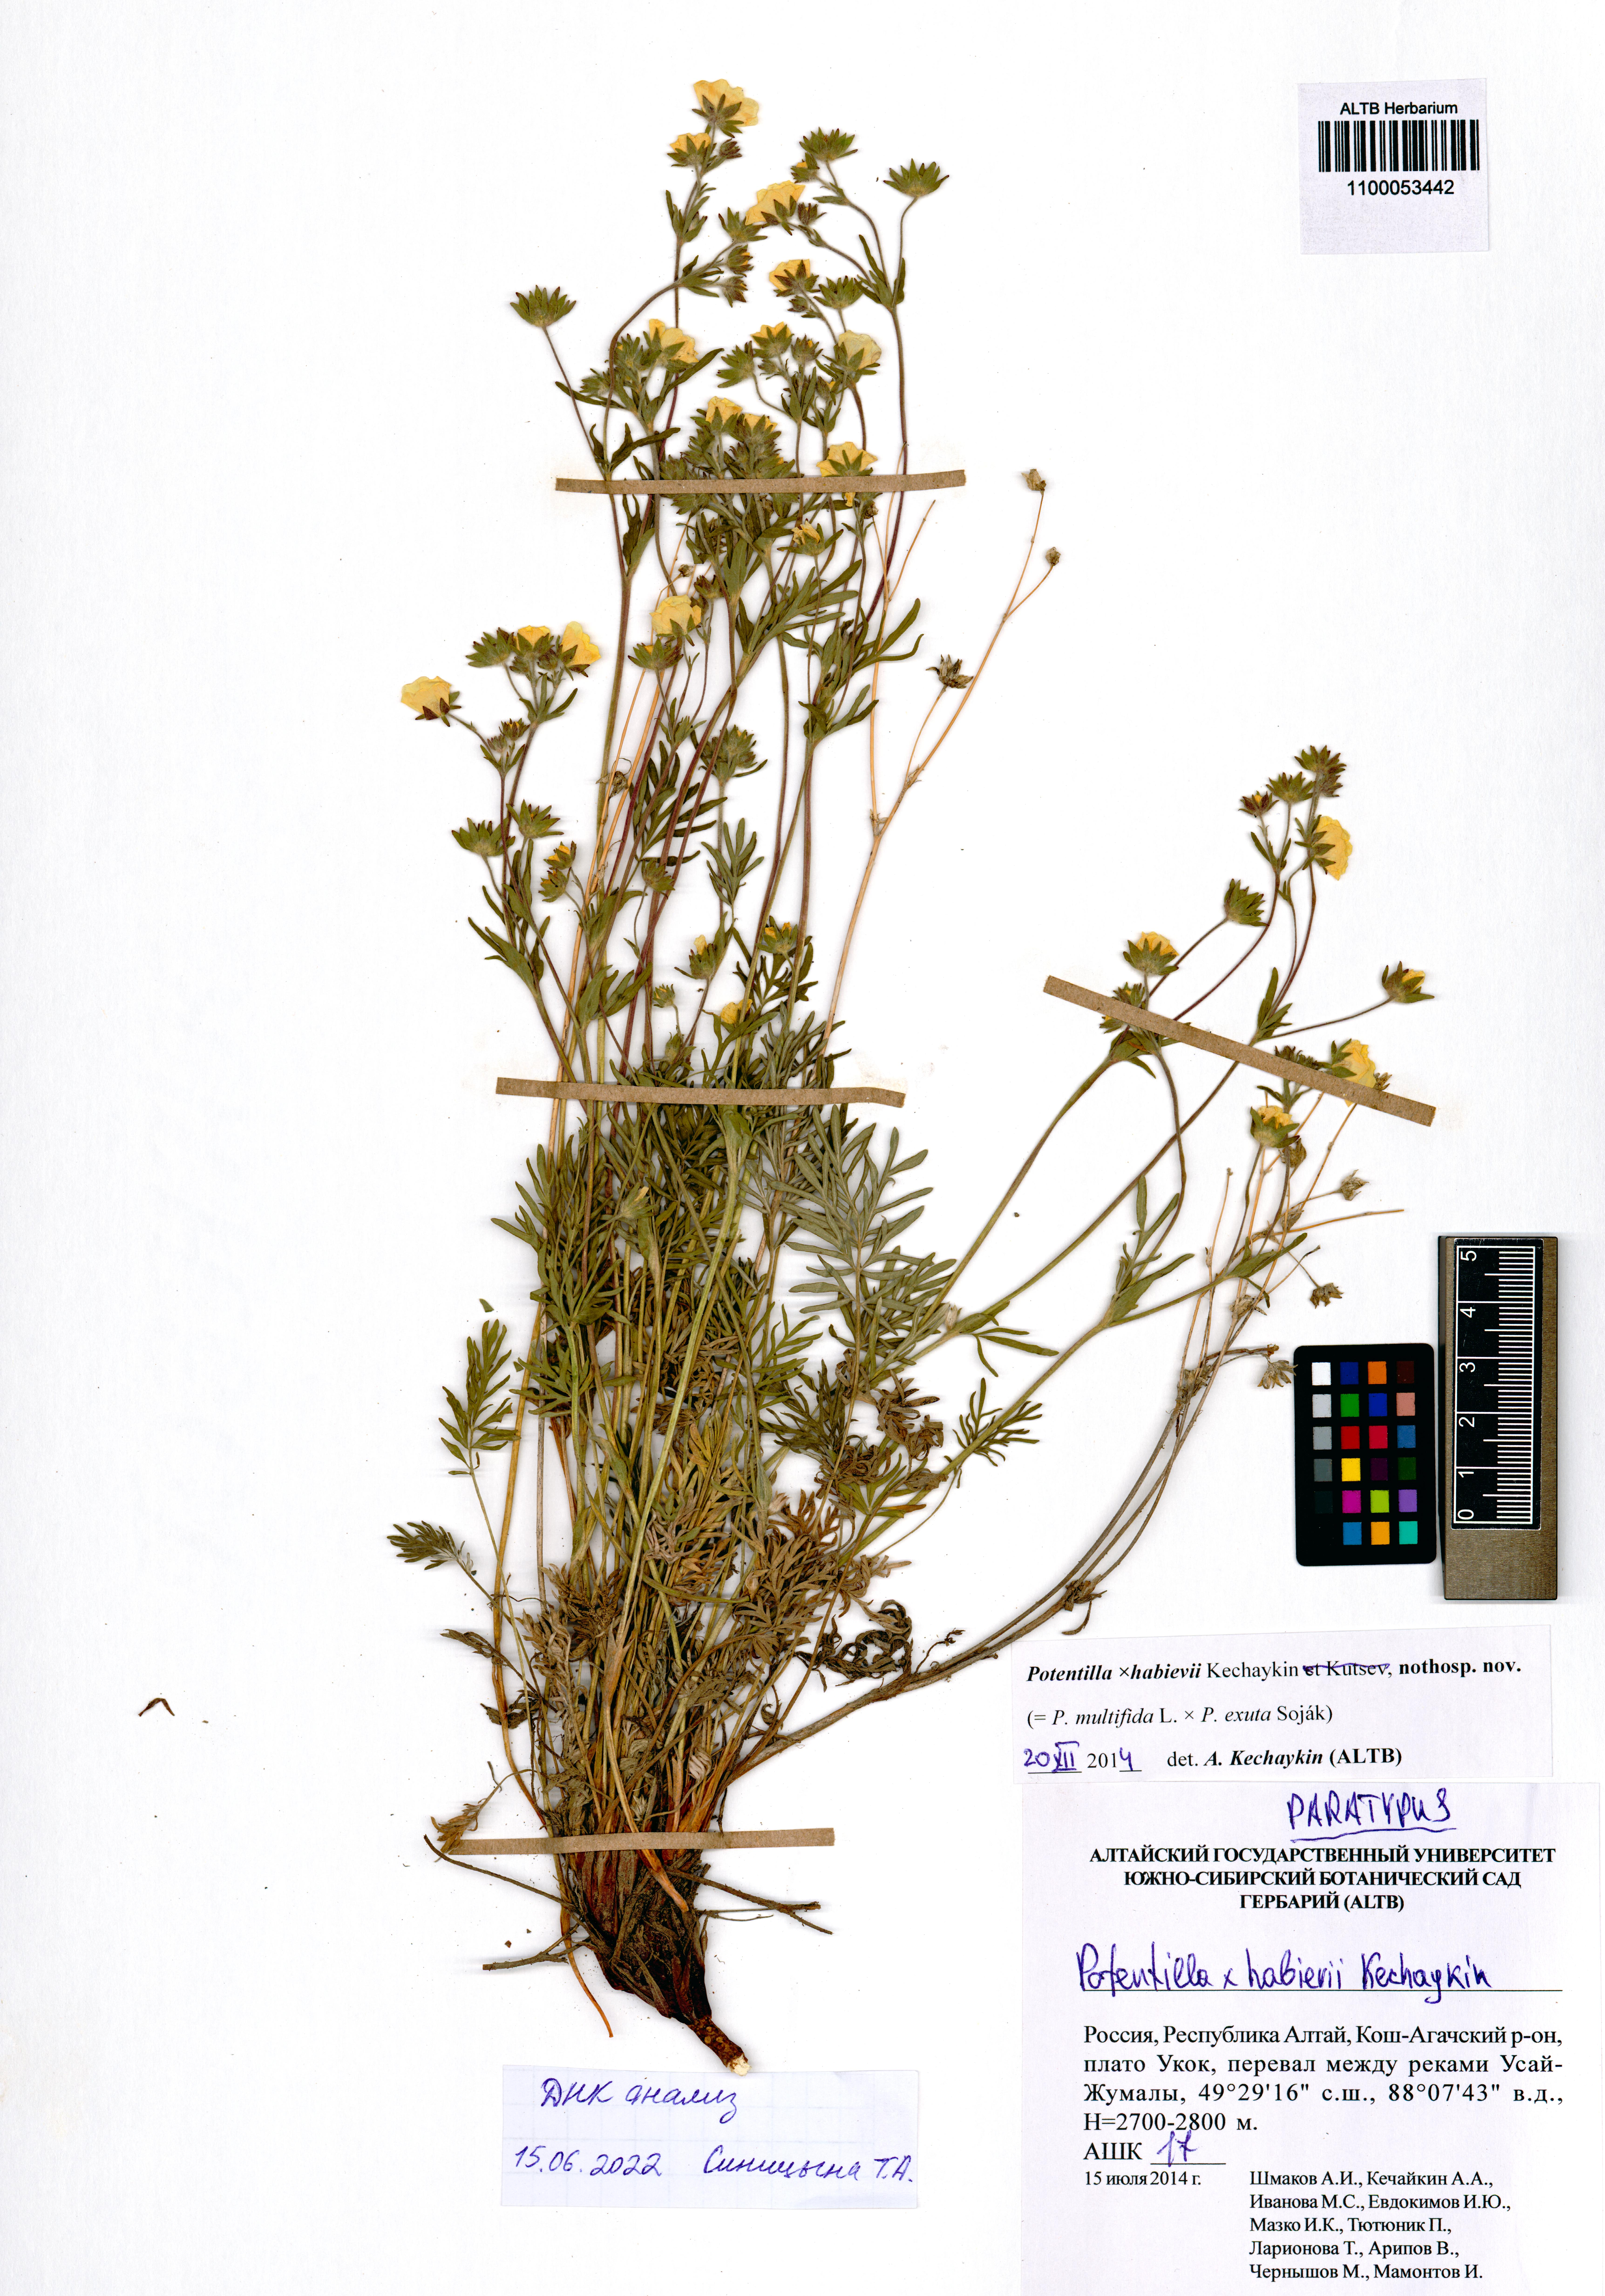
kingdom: Plantae
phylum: Tracheophyta
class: Magnoliopsida
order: Rosales
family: Rosaceae
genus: Potentilla
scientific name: Potentilla habievii
